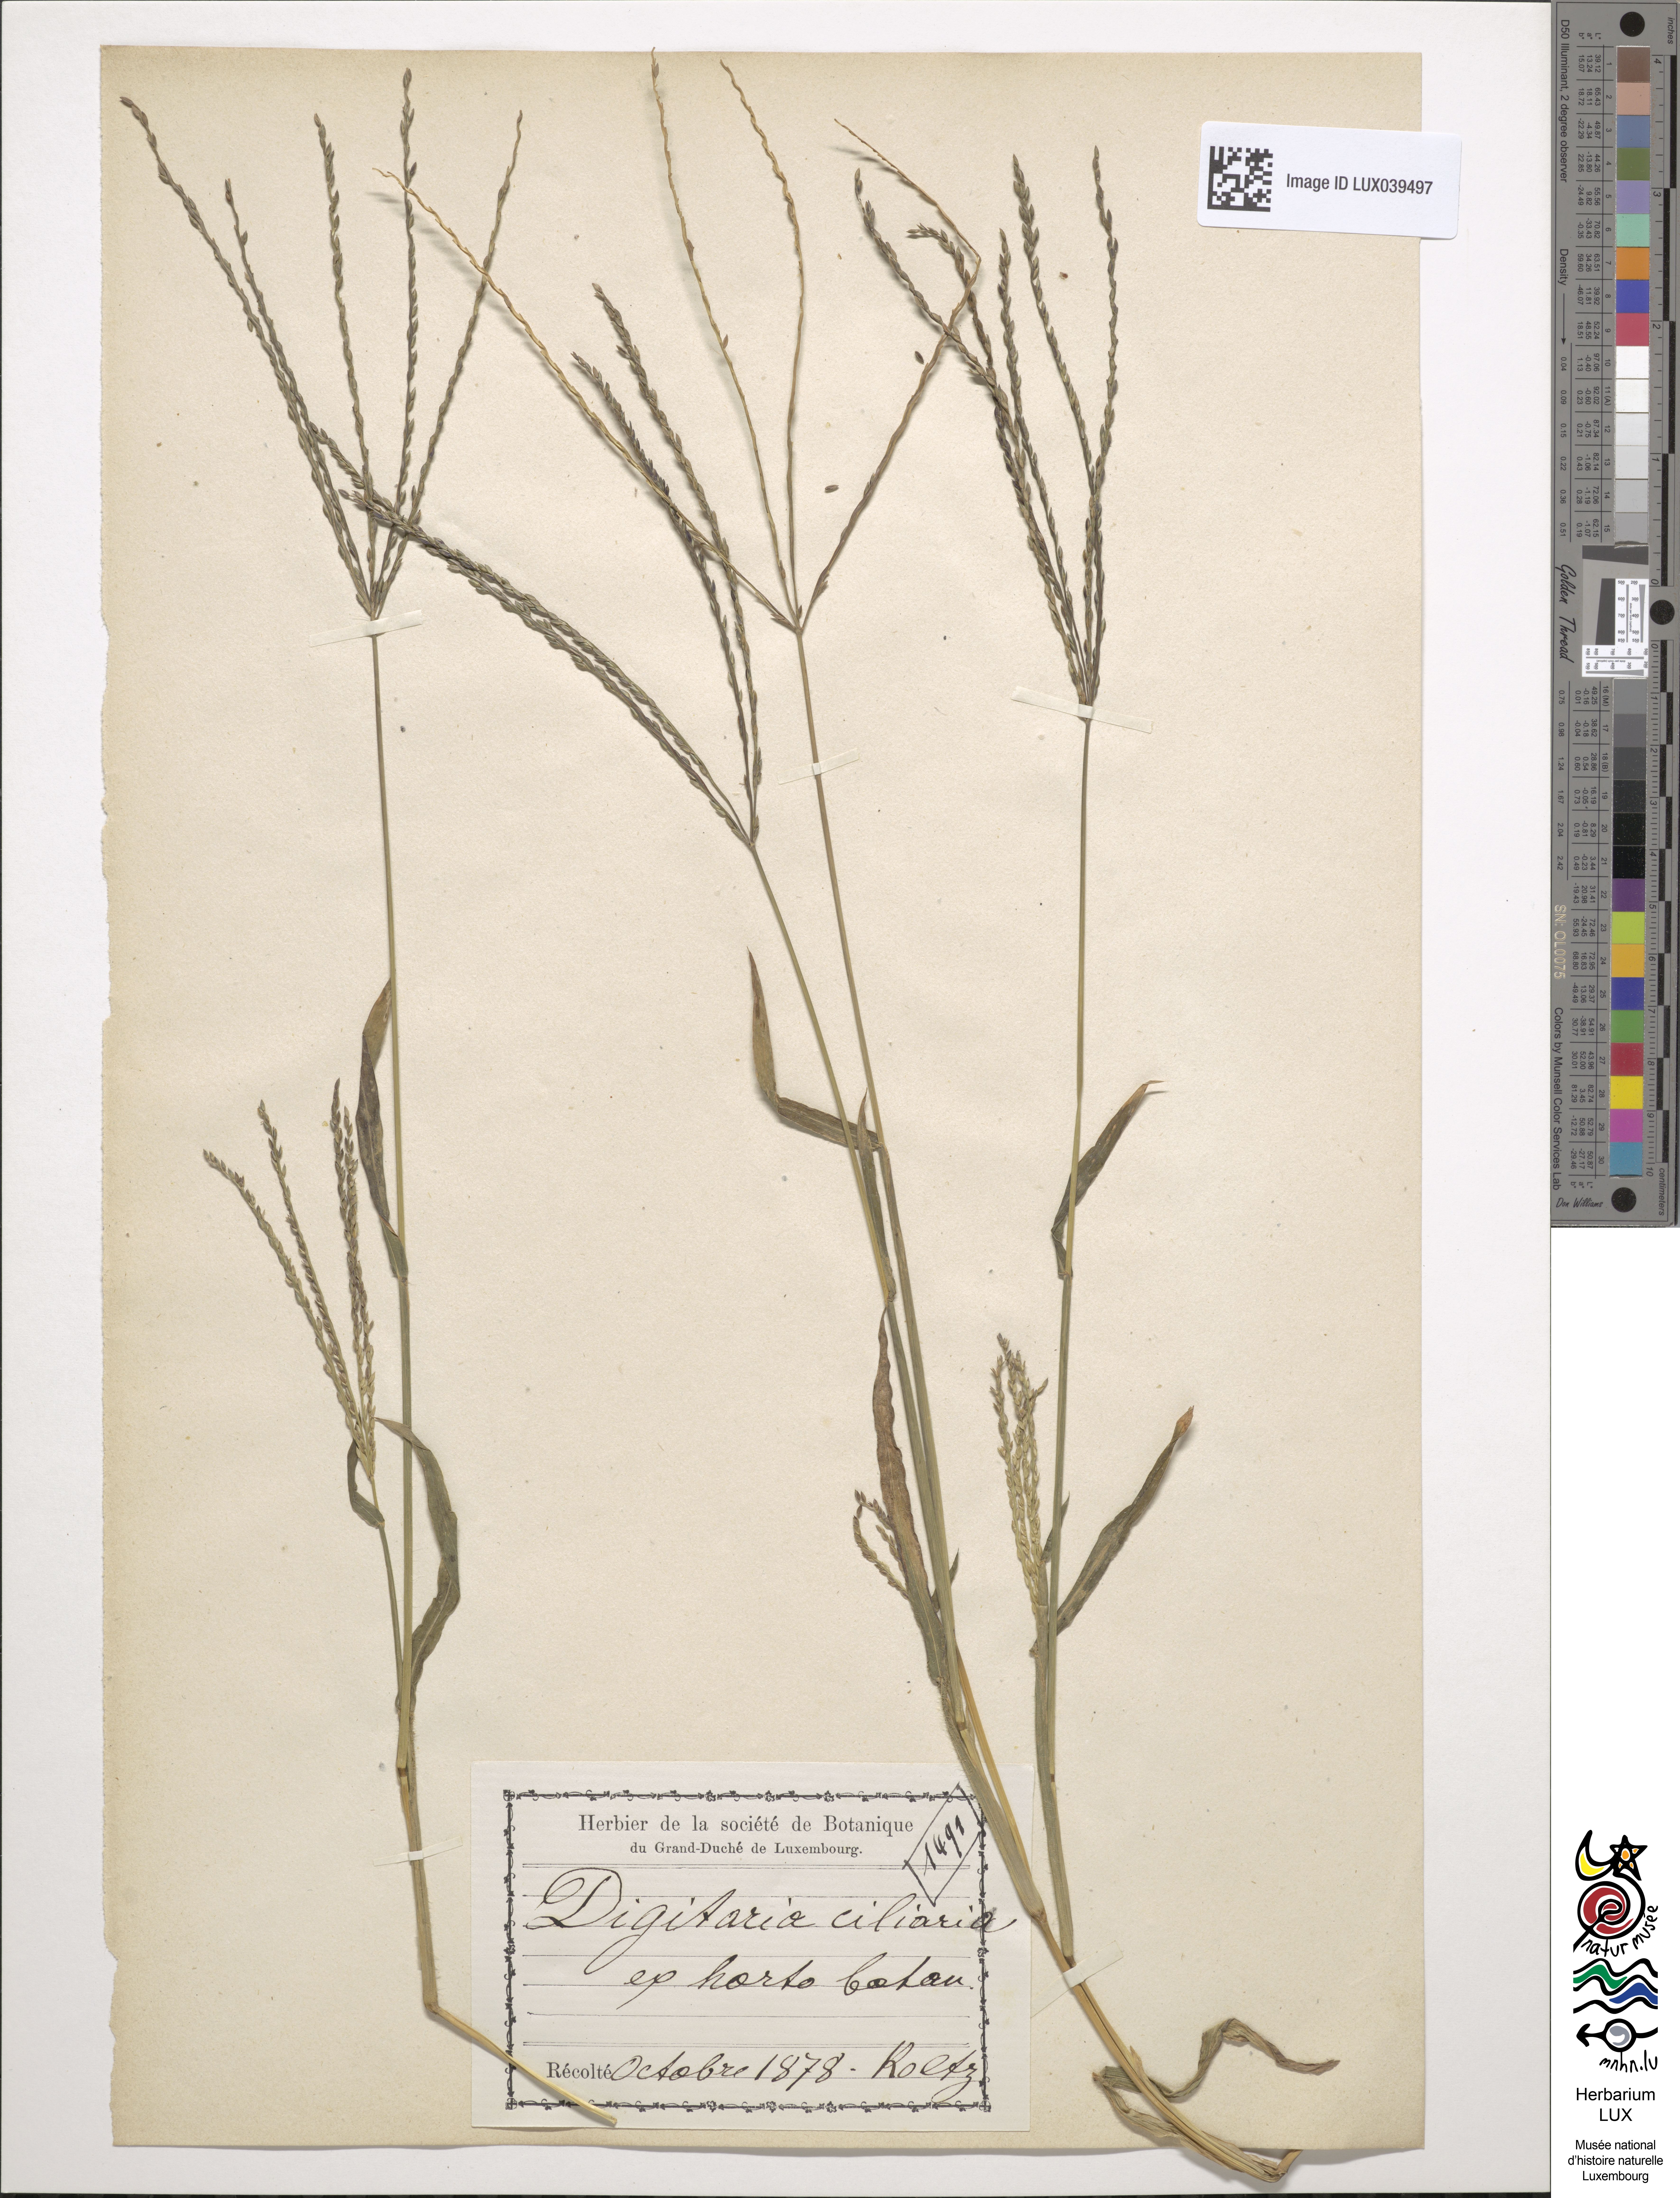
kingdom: Plantae
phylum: Tracheophyta
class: Liliopsida
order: Poales
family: Poaceae
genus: Digitaria
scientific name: Digitaria ciliaris
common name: Tropical finger-grass
